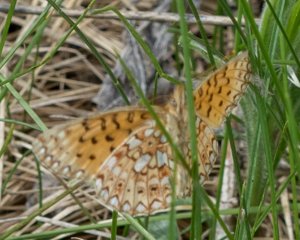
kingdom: Animalia
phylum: Arthropoda
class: Insecta
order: Lepidoptera
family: Nymphalidae
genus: Boloria
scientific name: Boloria selene
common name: Silver-bordered Fritillary
